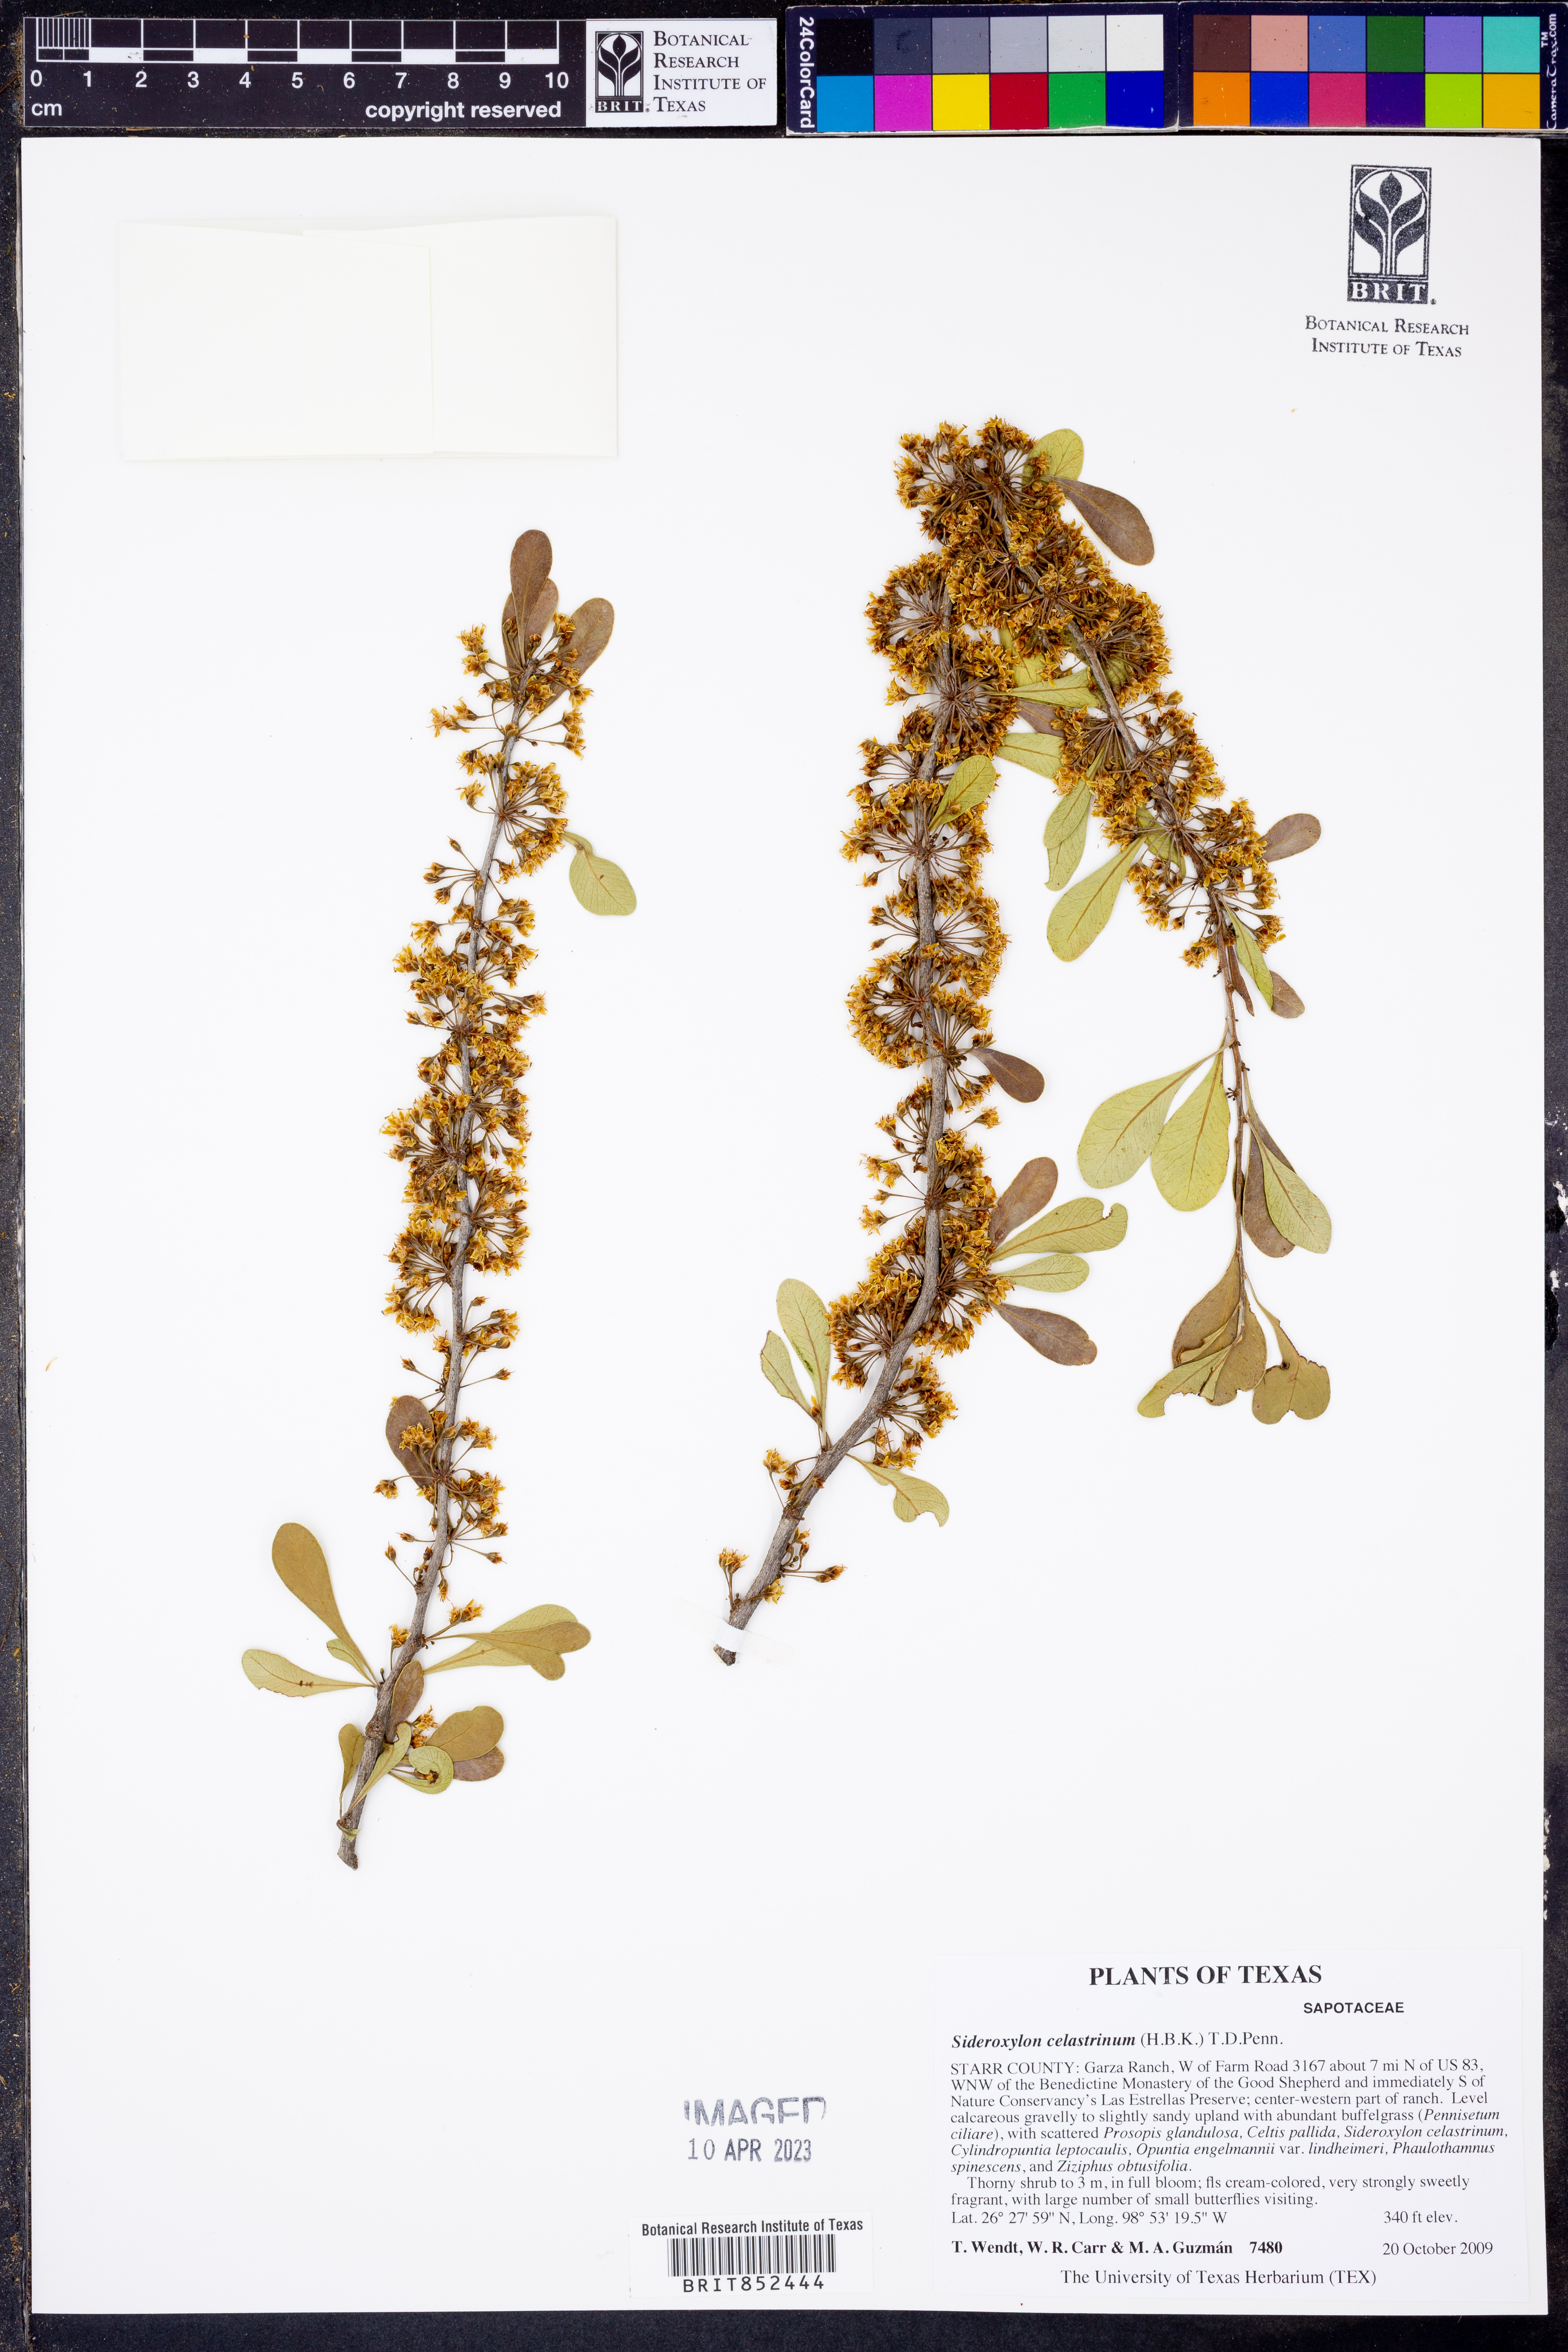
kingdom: Plantae
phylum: Tracheophyta
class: Magnoliopsida
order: Ericales
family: Sapotaceae
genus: Sideroxylon
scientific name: Sideroxylon celastrinum
